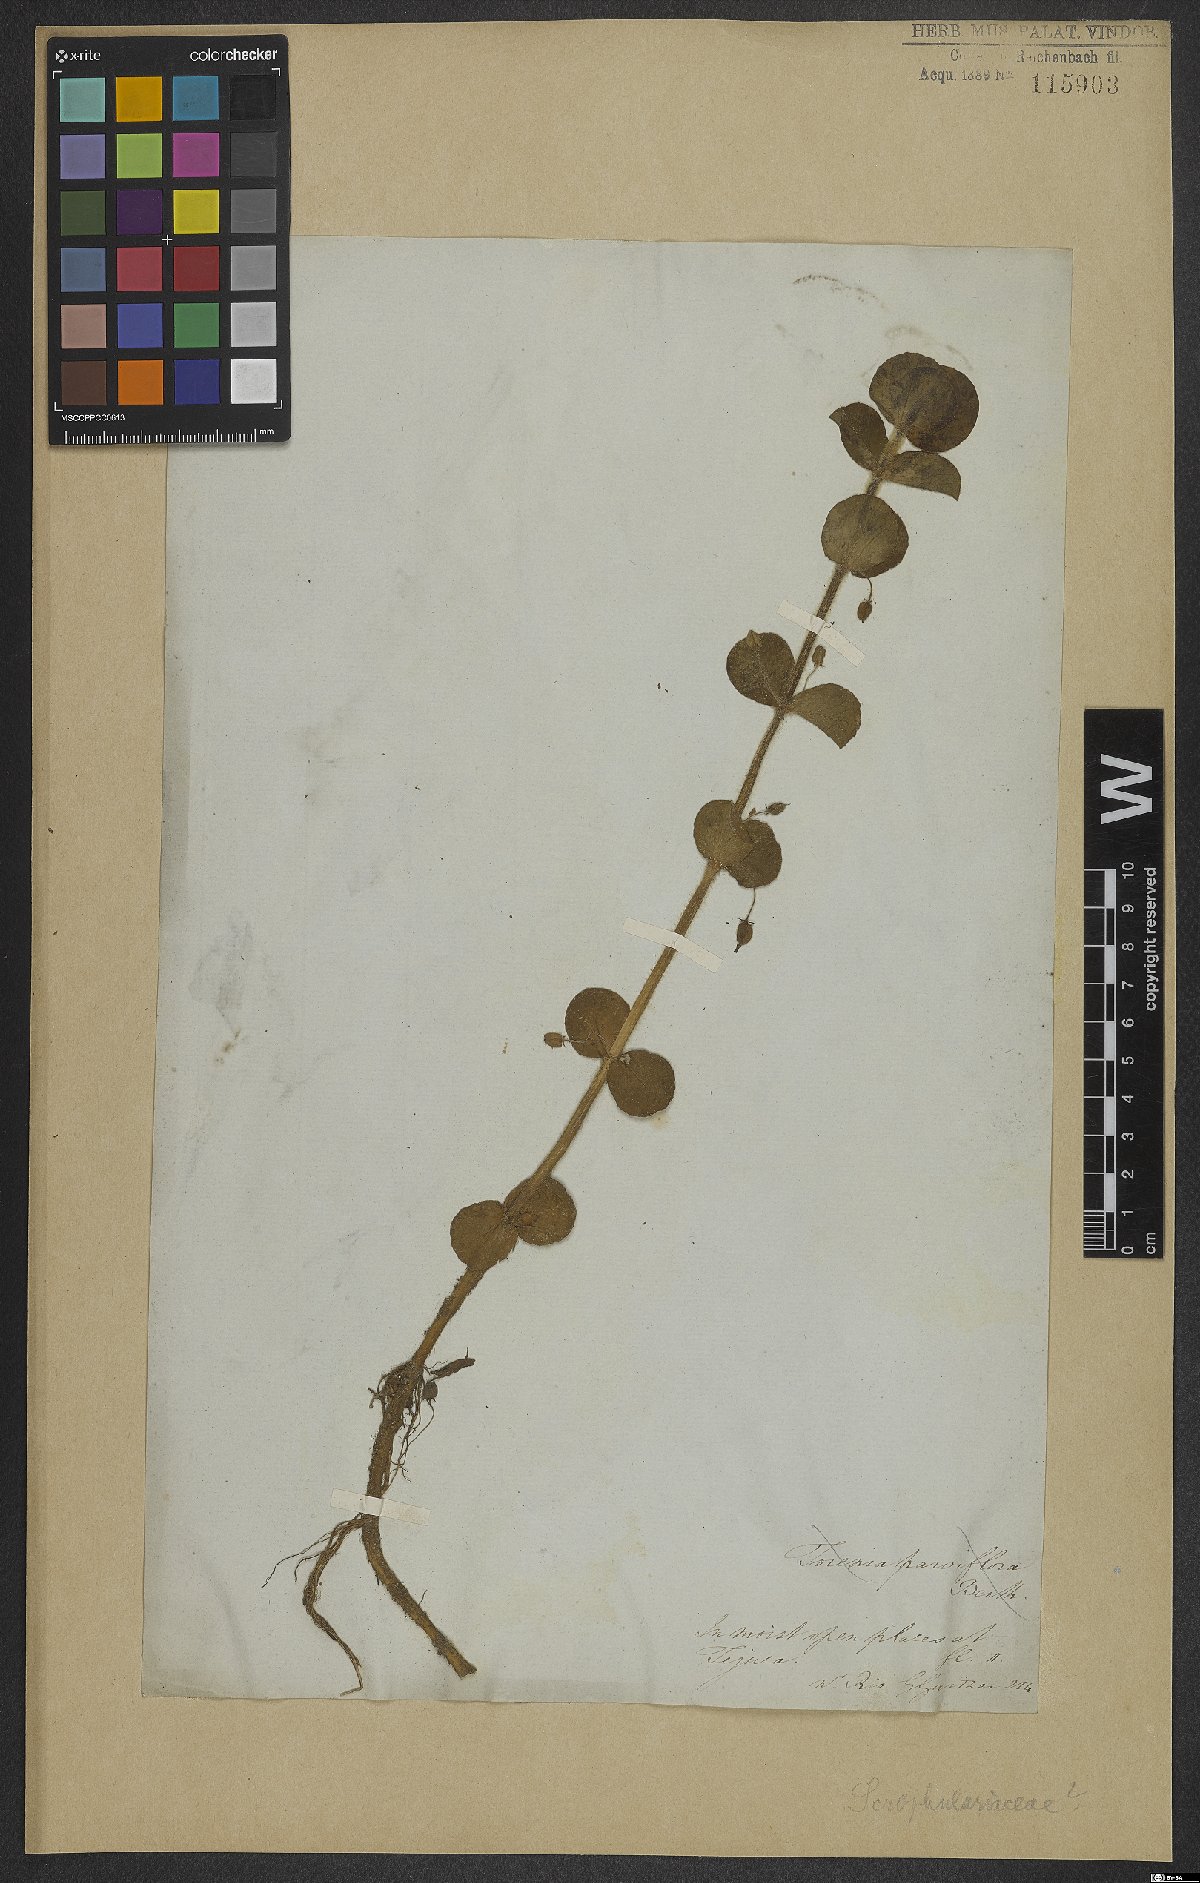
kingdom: Plantae
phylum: Tracheophyta
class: Magnoliopsida
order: Lamiales
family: Scrophulariaceae
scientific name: Scrophulariaceae
